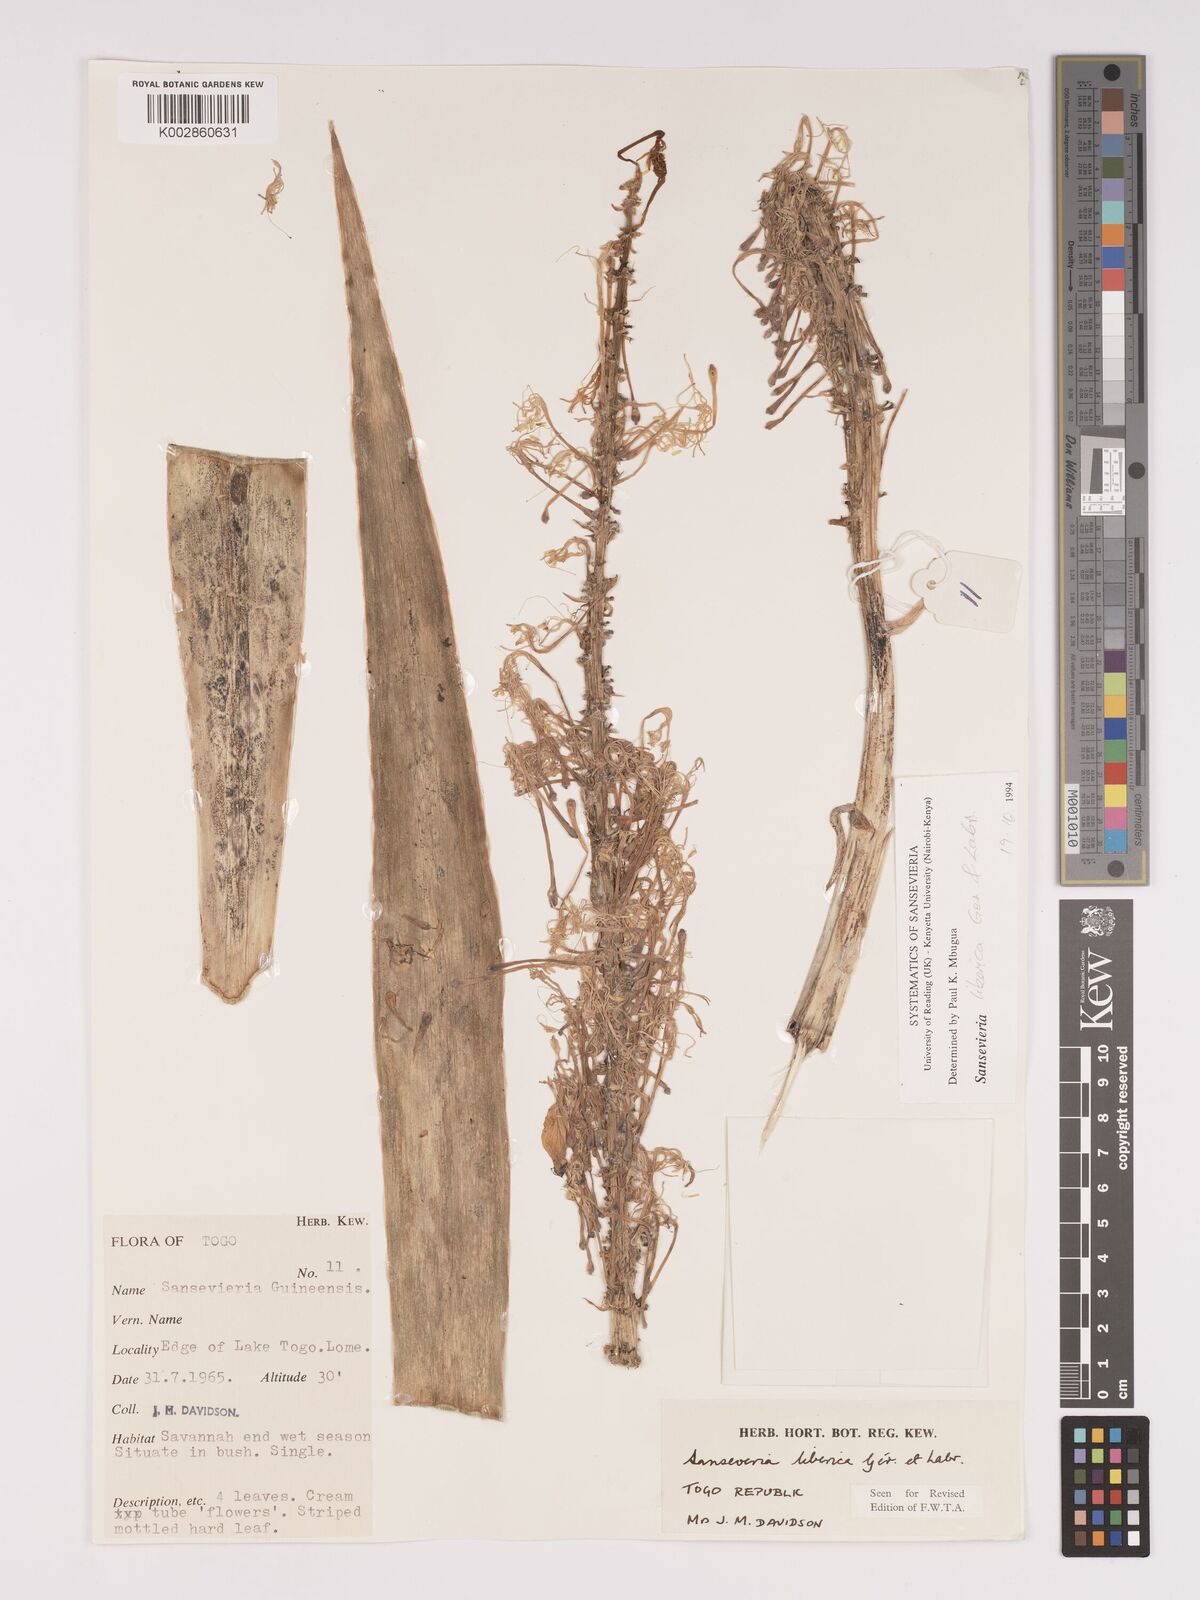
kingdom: Plantae
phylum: Tracheophyta
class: Liliopsida
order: Asparagales
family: Asparagaceae
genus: Dracaena
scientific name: Dracaena liberica
